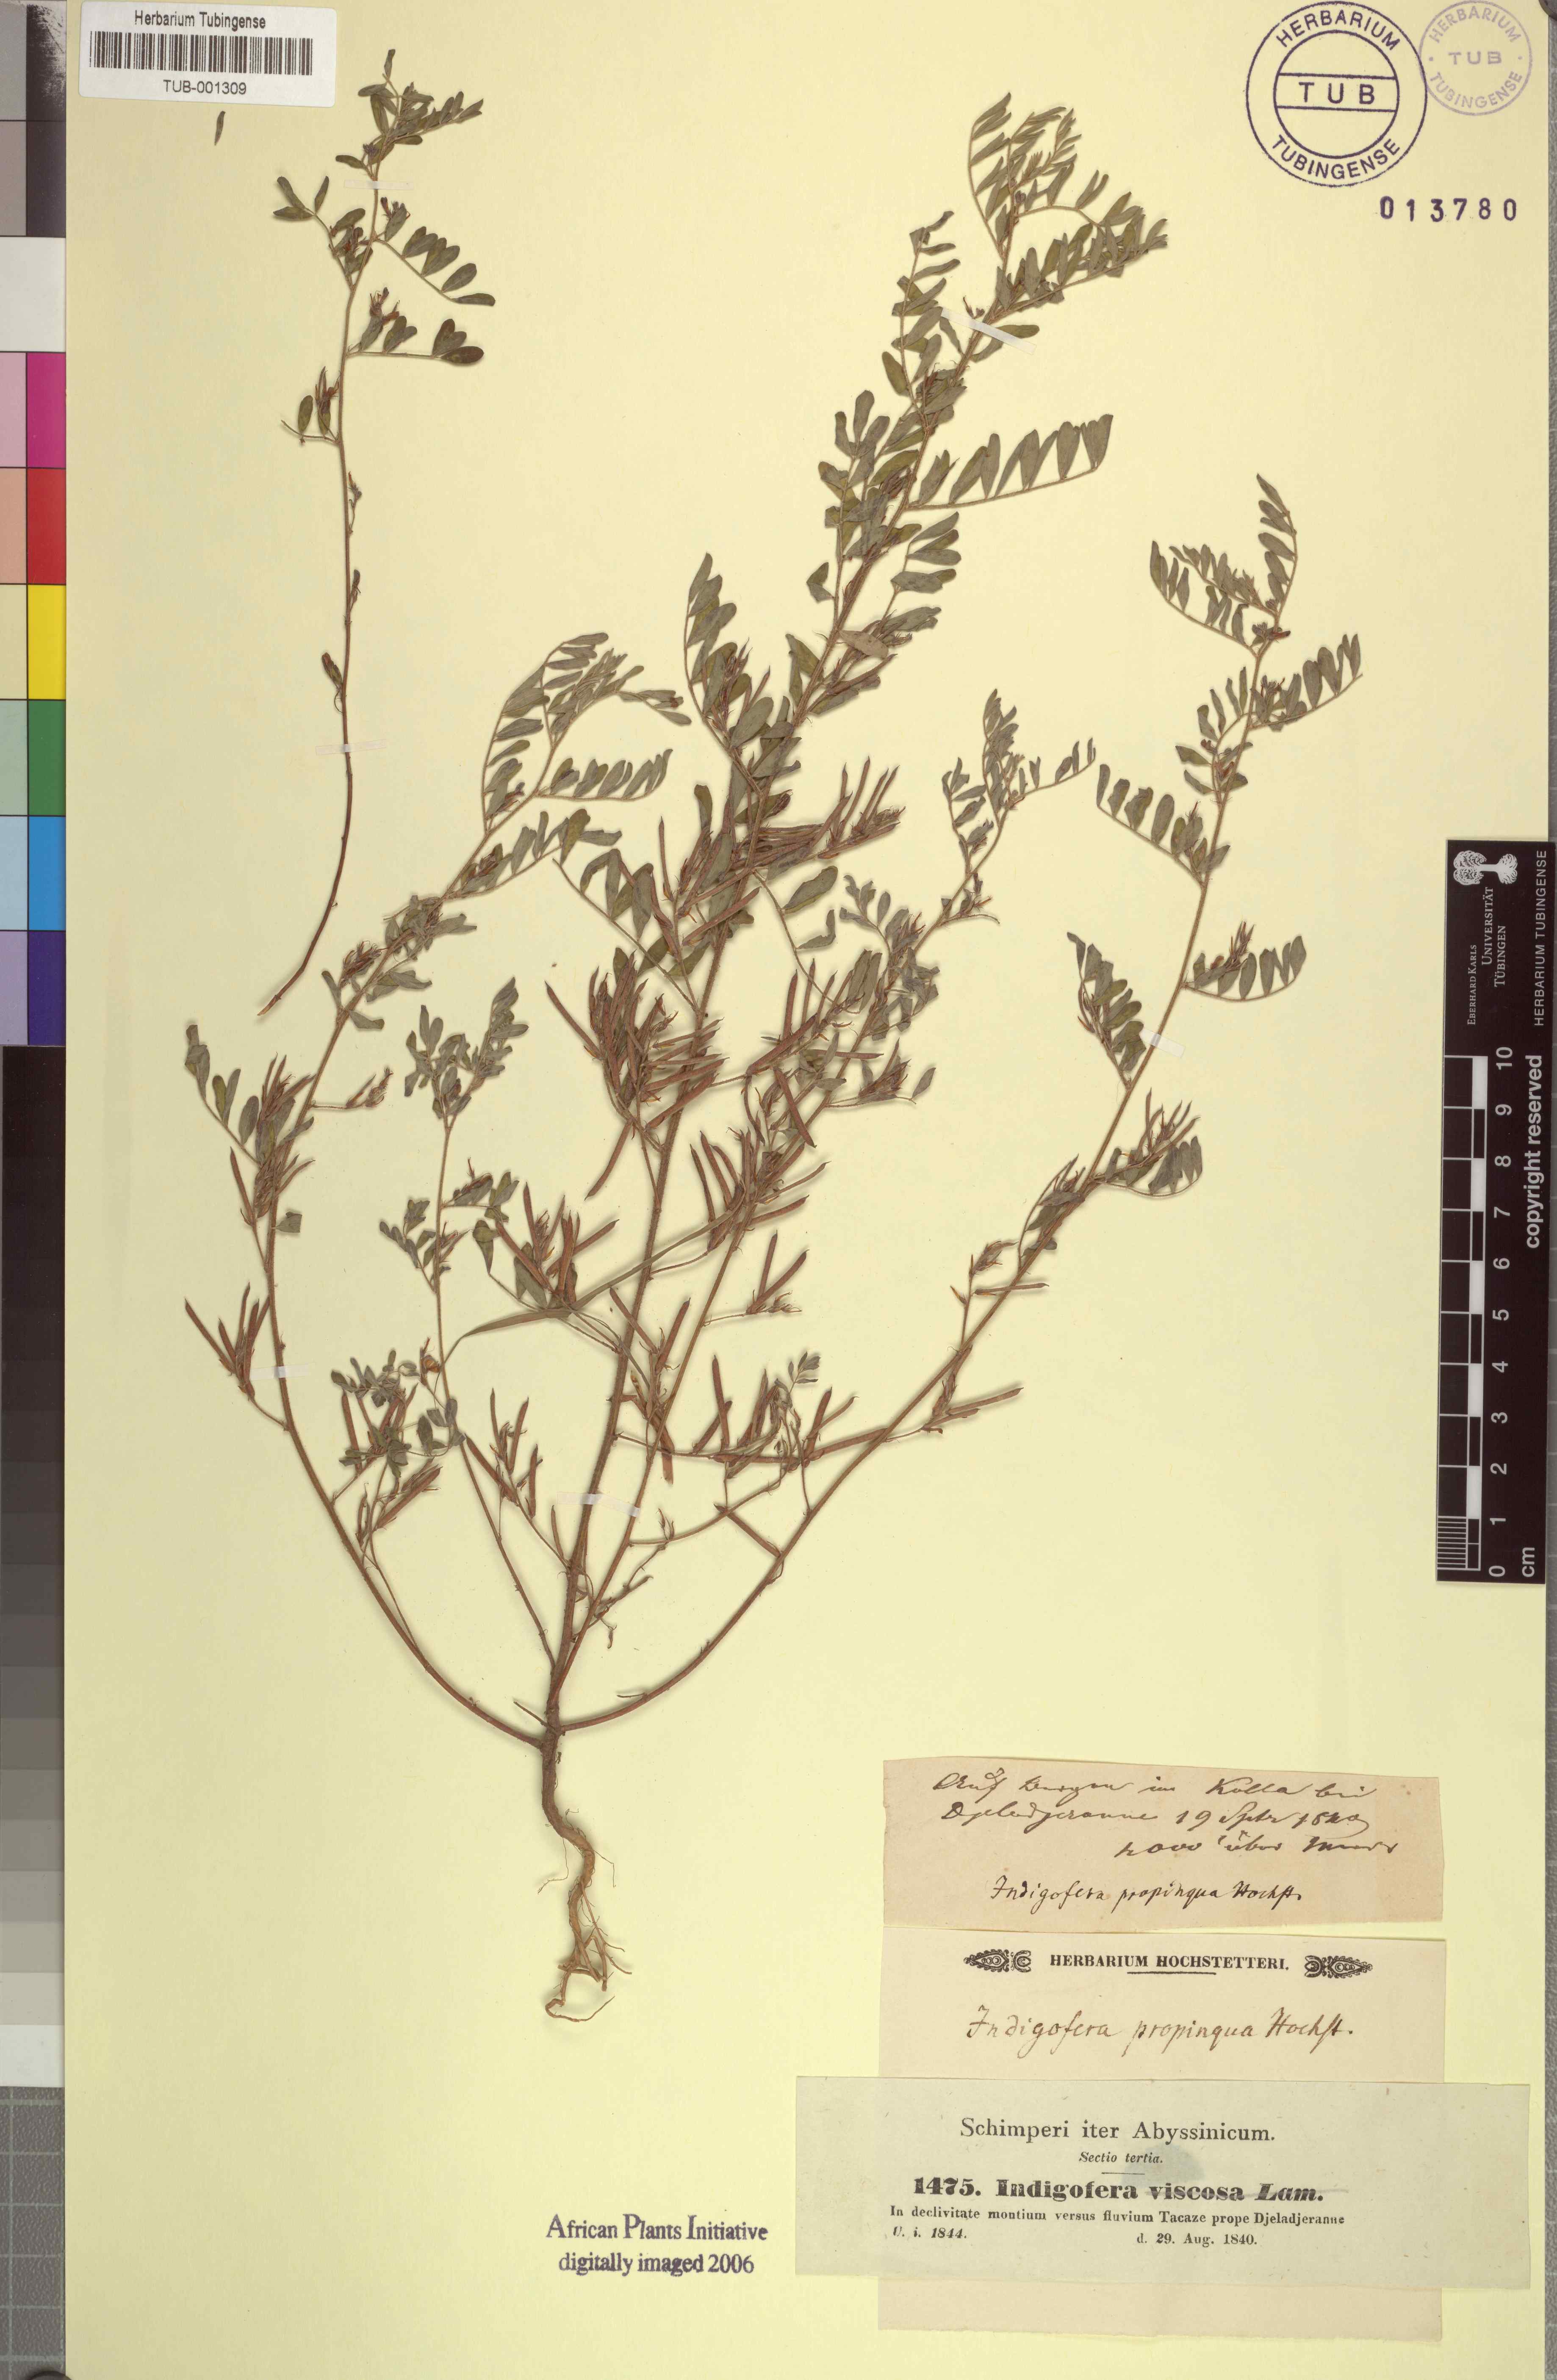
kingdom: Plantae
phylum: Tracheophyta
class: Magnoliopsida
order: Fabales
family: Fabaceae
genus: Indigofera
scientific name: Indigofera colutea
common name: Rusty indigo
